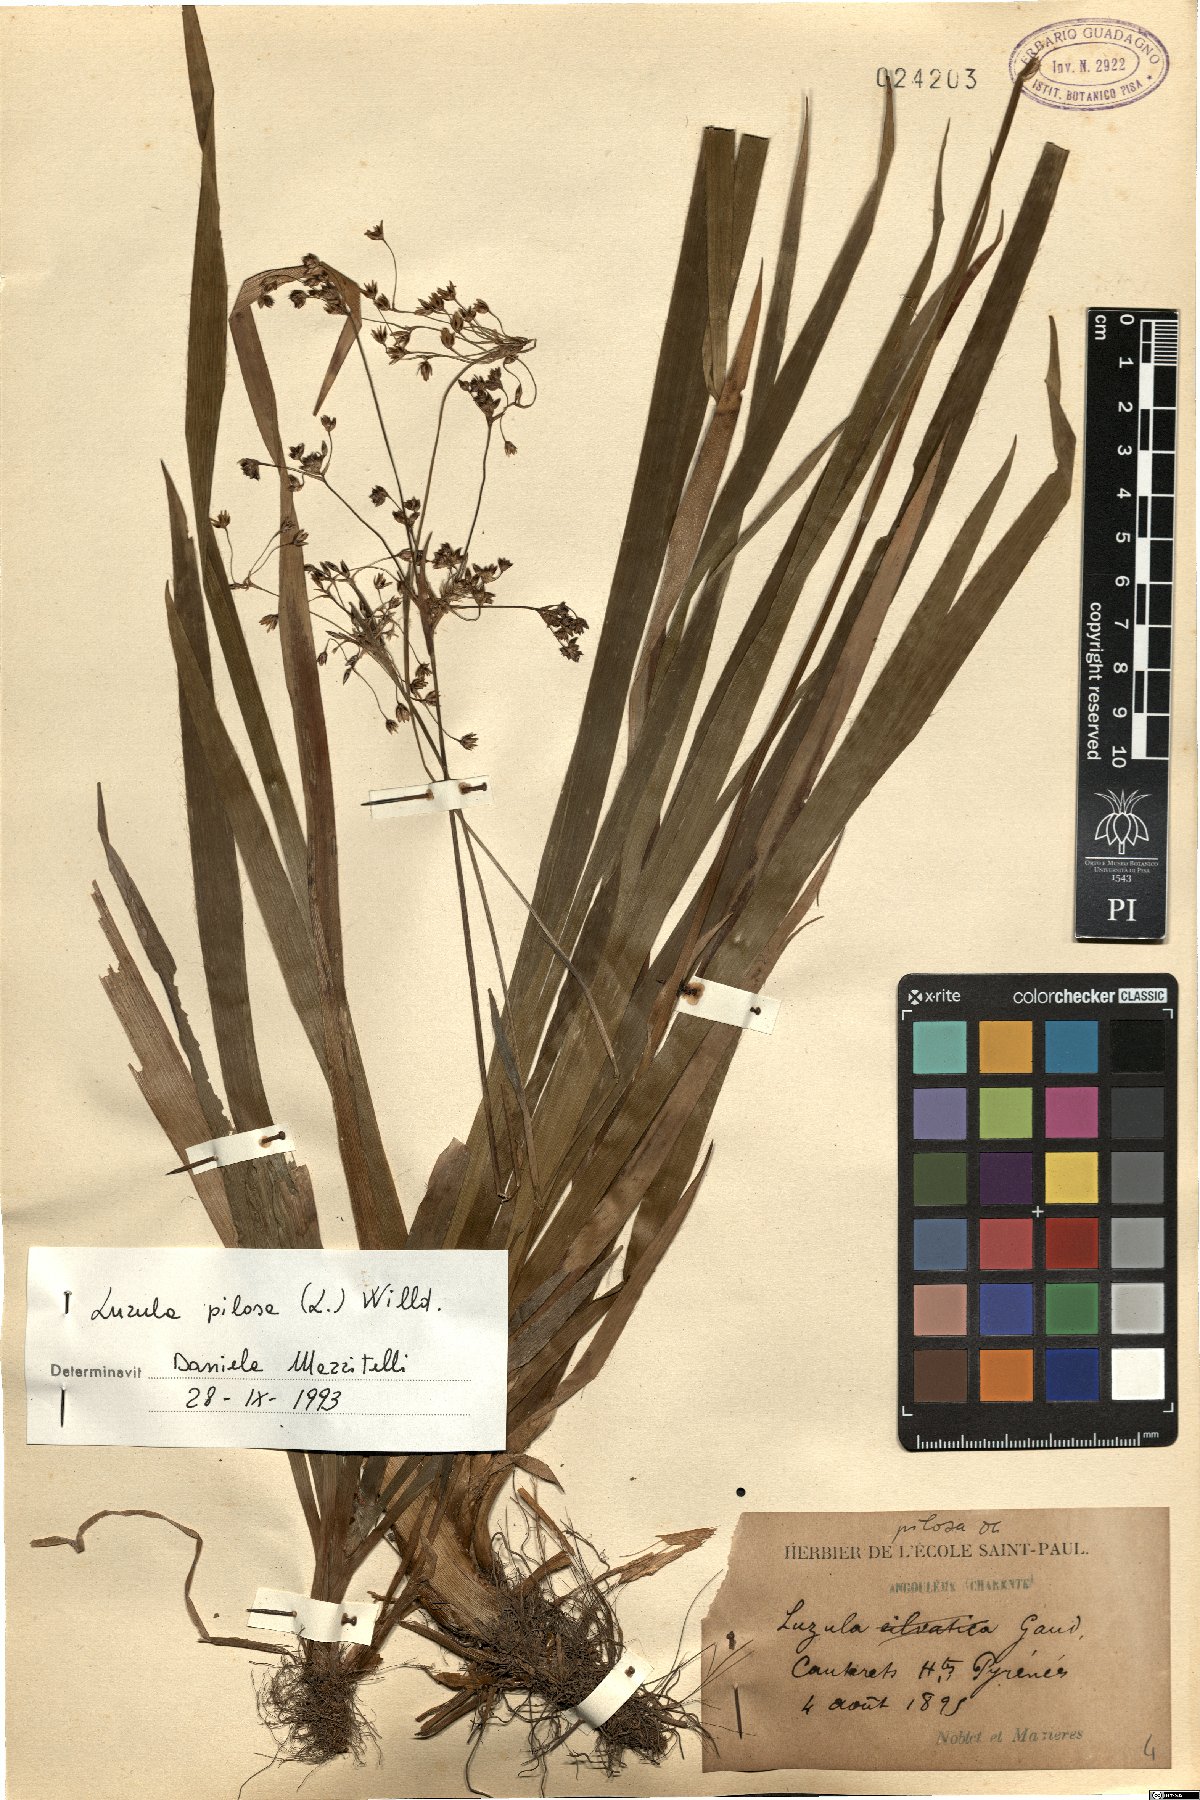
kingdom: Plantae
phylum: Tracheophyta
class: Liliopsida
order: Poales
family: Juncaceae
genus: Luzula
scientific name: Luzula pilosa
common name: Hairy wood-rush
